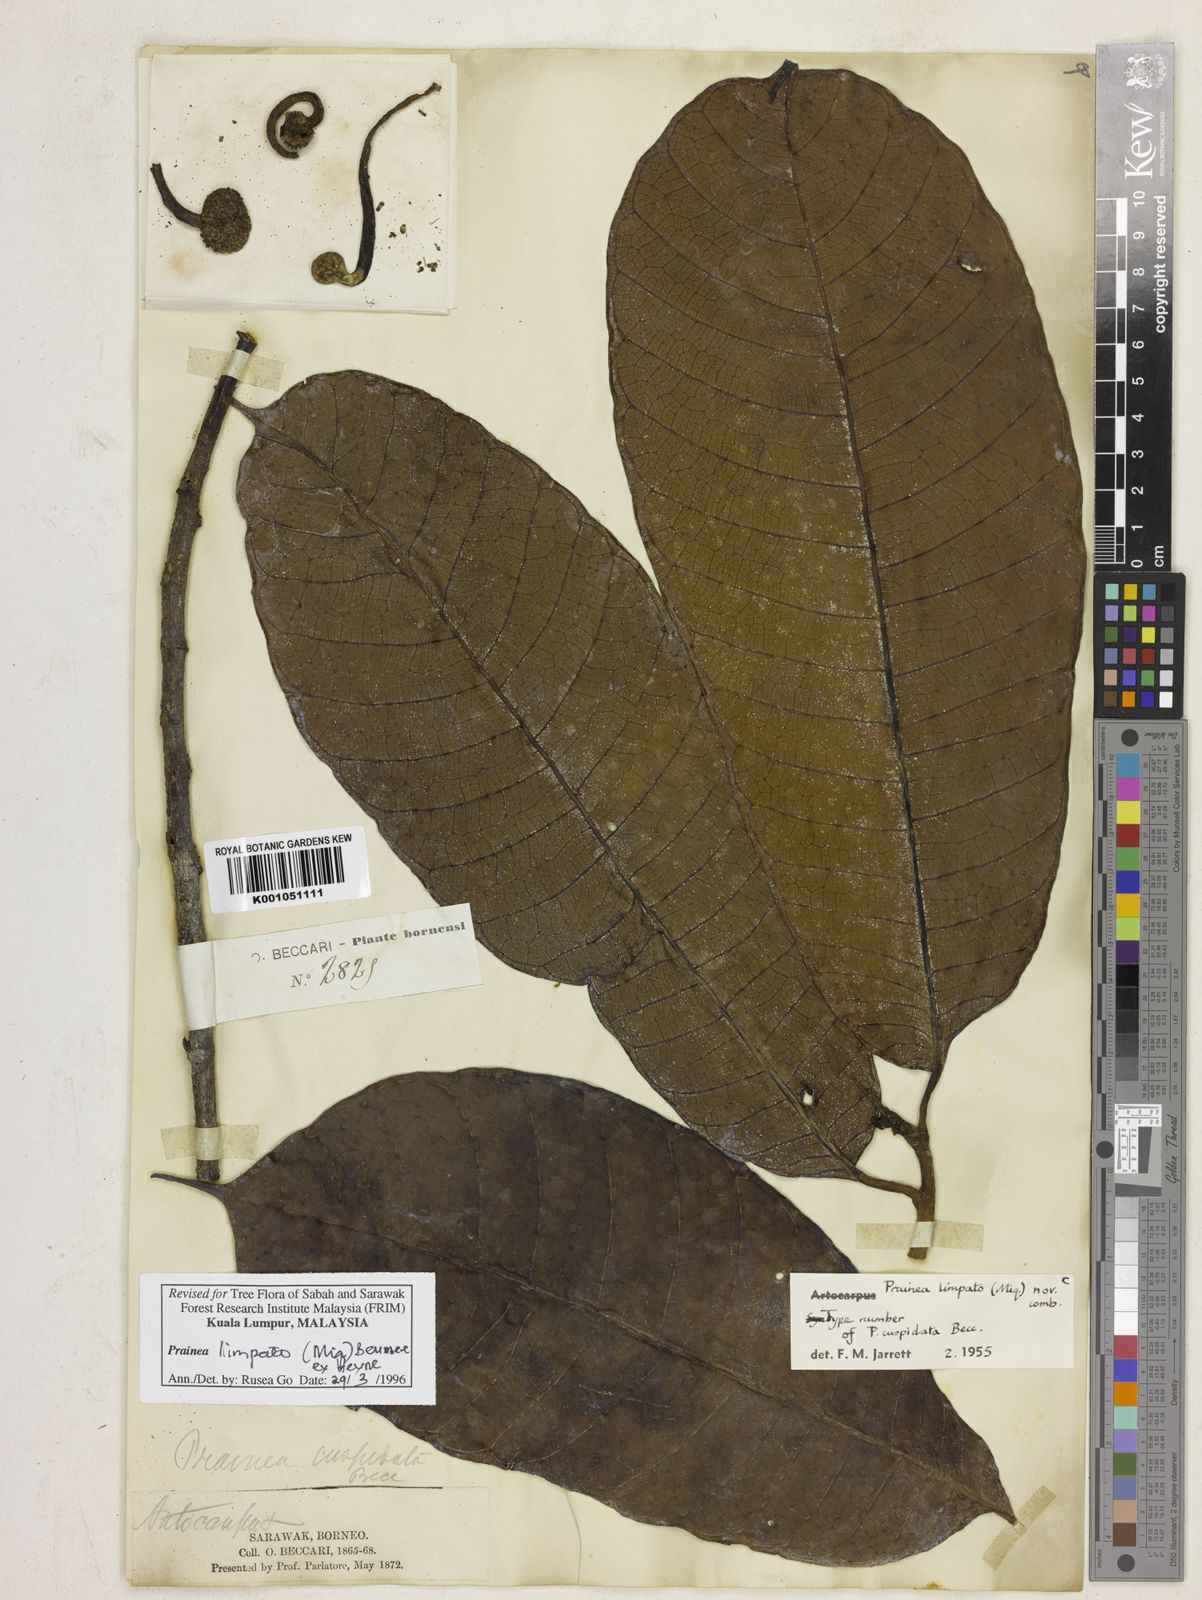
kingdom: Plantae
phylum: Tracheophyta
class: Magnoliopsida
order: Rosales
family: Moraceae
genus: Prainea
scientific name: Prainea limpato
